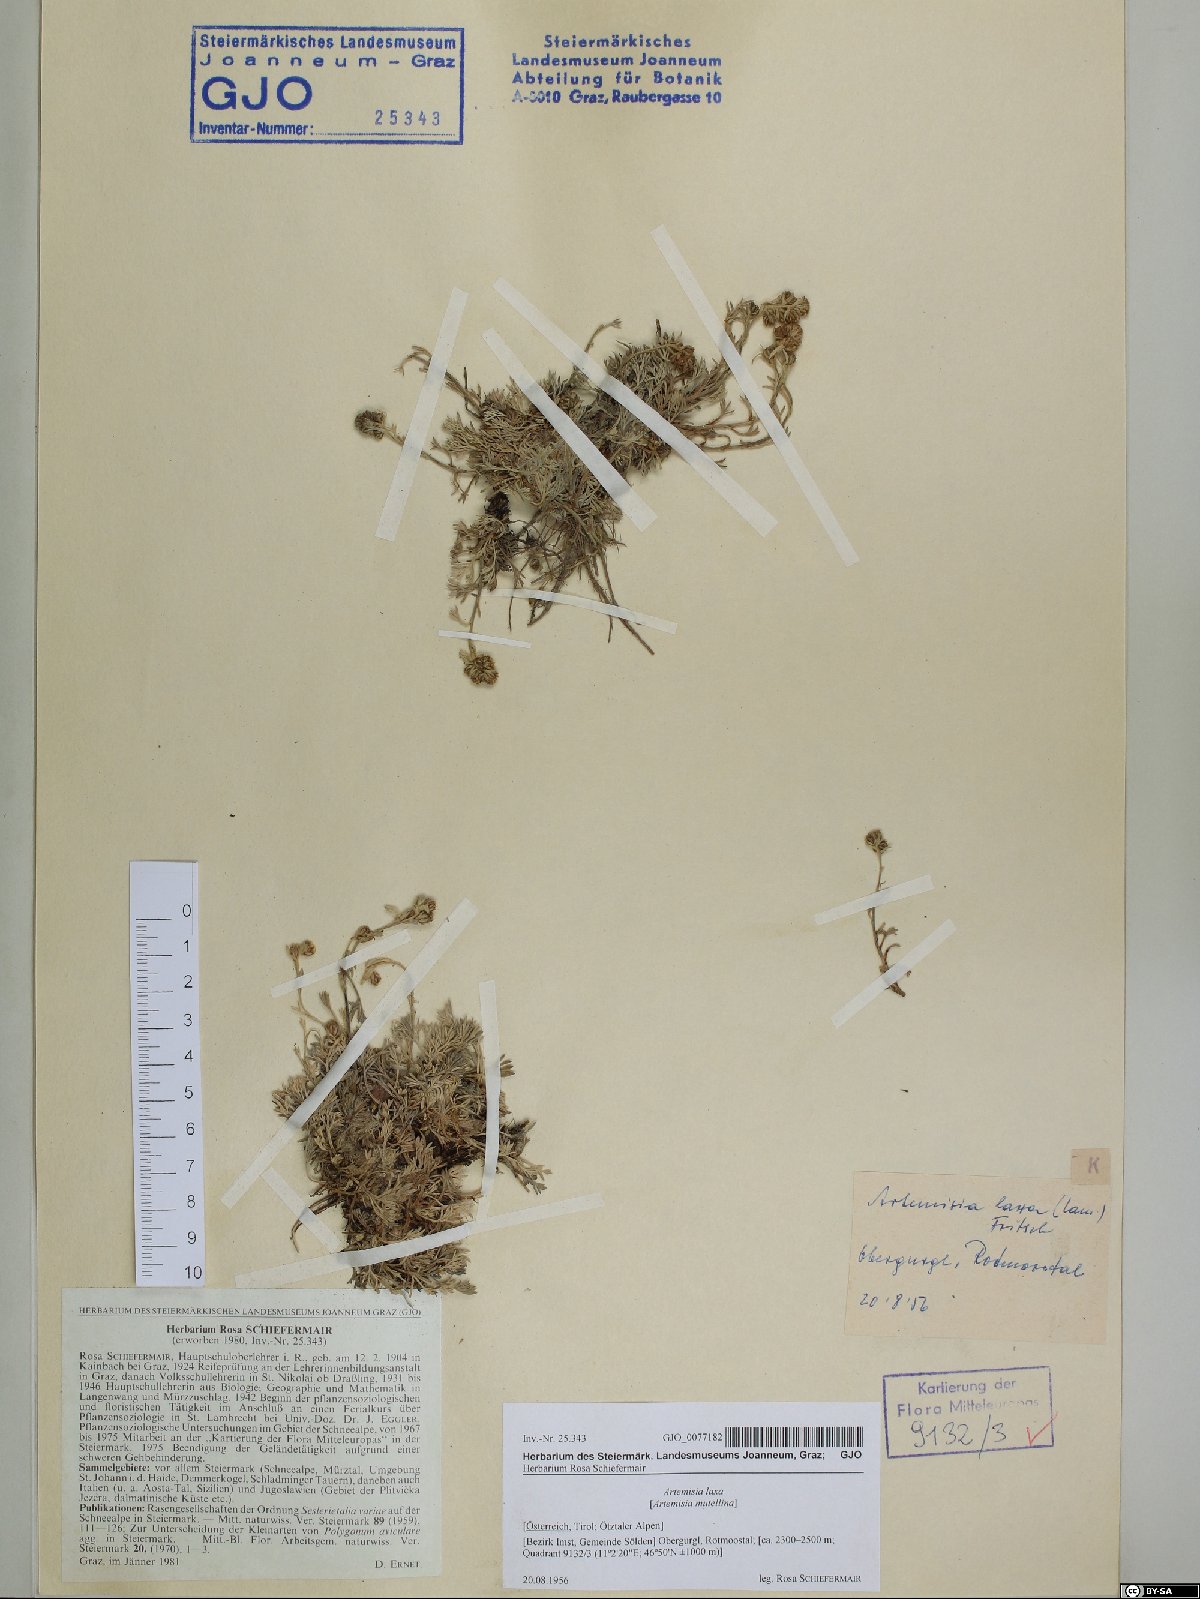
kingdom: Plantae
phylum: Tracheophyta
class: Magnoliopsida
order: Asterales
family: Asteraceae
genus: Artemisia
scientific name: Artemisia mutellina
